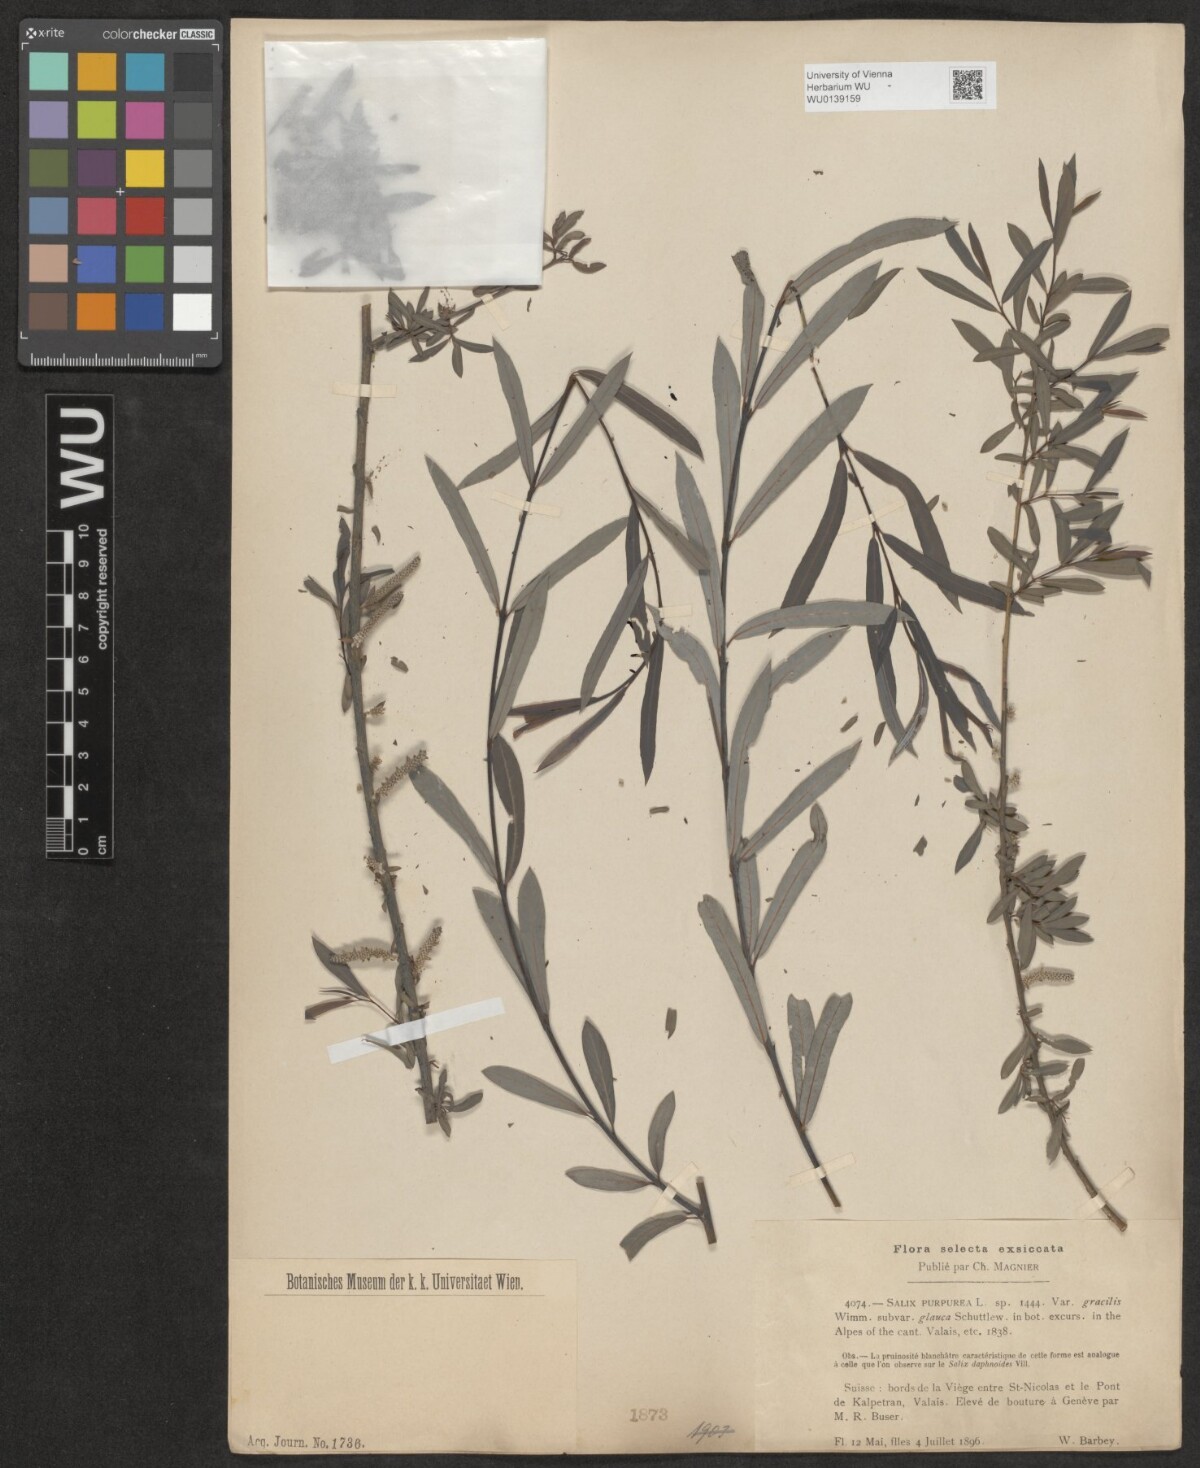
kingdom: Plantae
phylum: Tracheophyta
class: Magnoliopsida
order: Malpighiales
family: Salicaceae
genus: Salix
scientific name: Salix purpurea
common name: Purple willow
